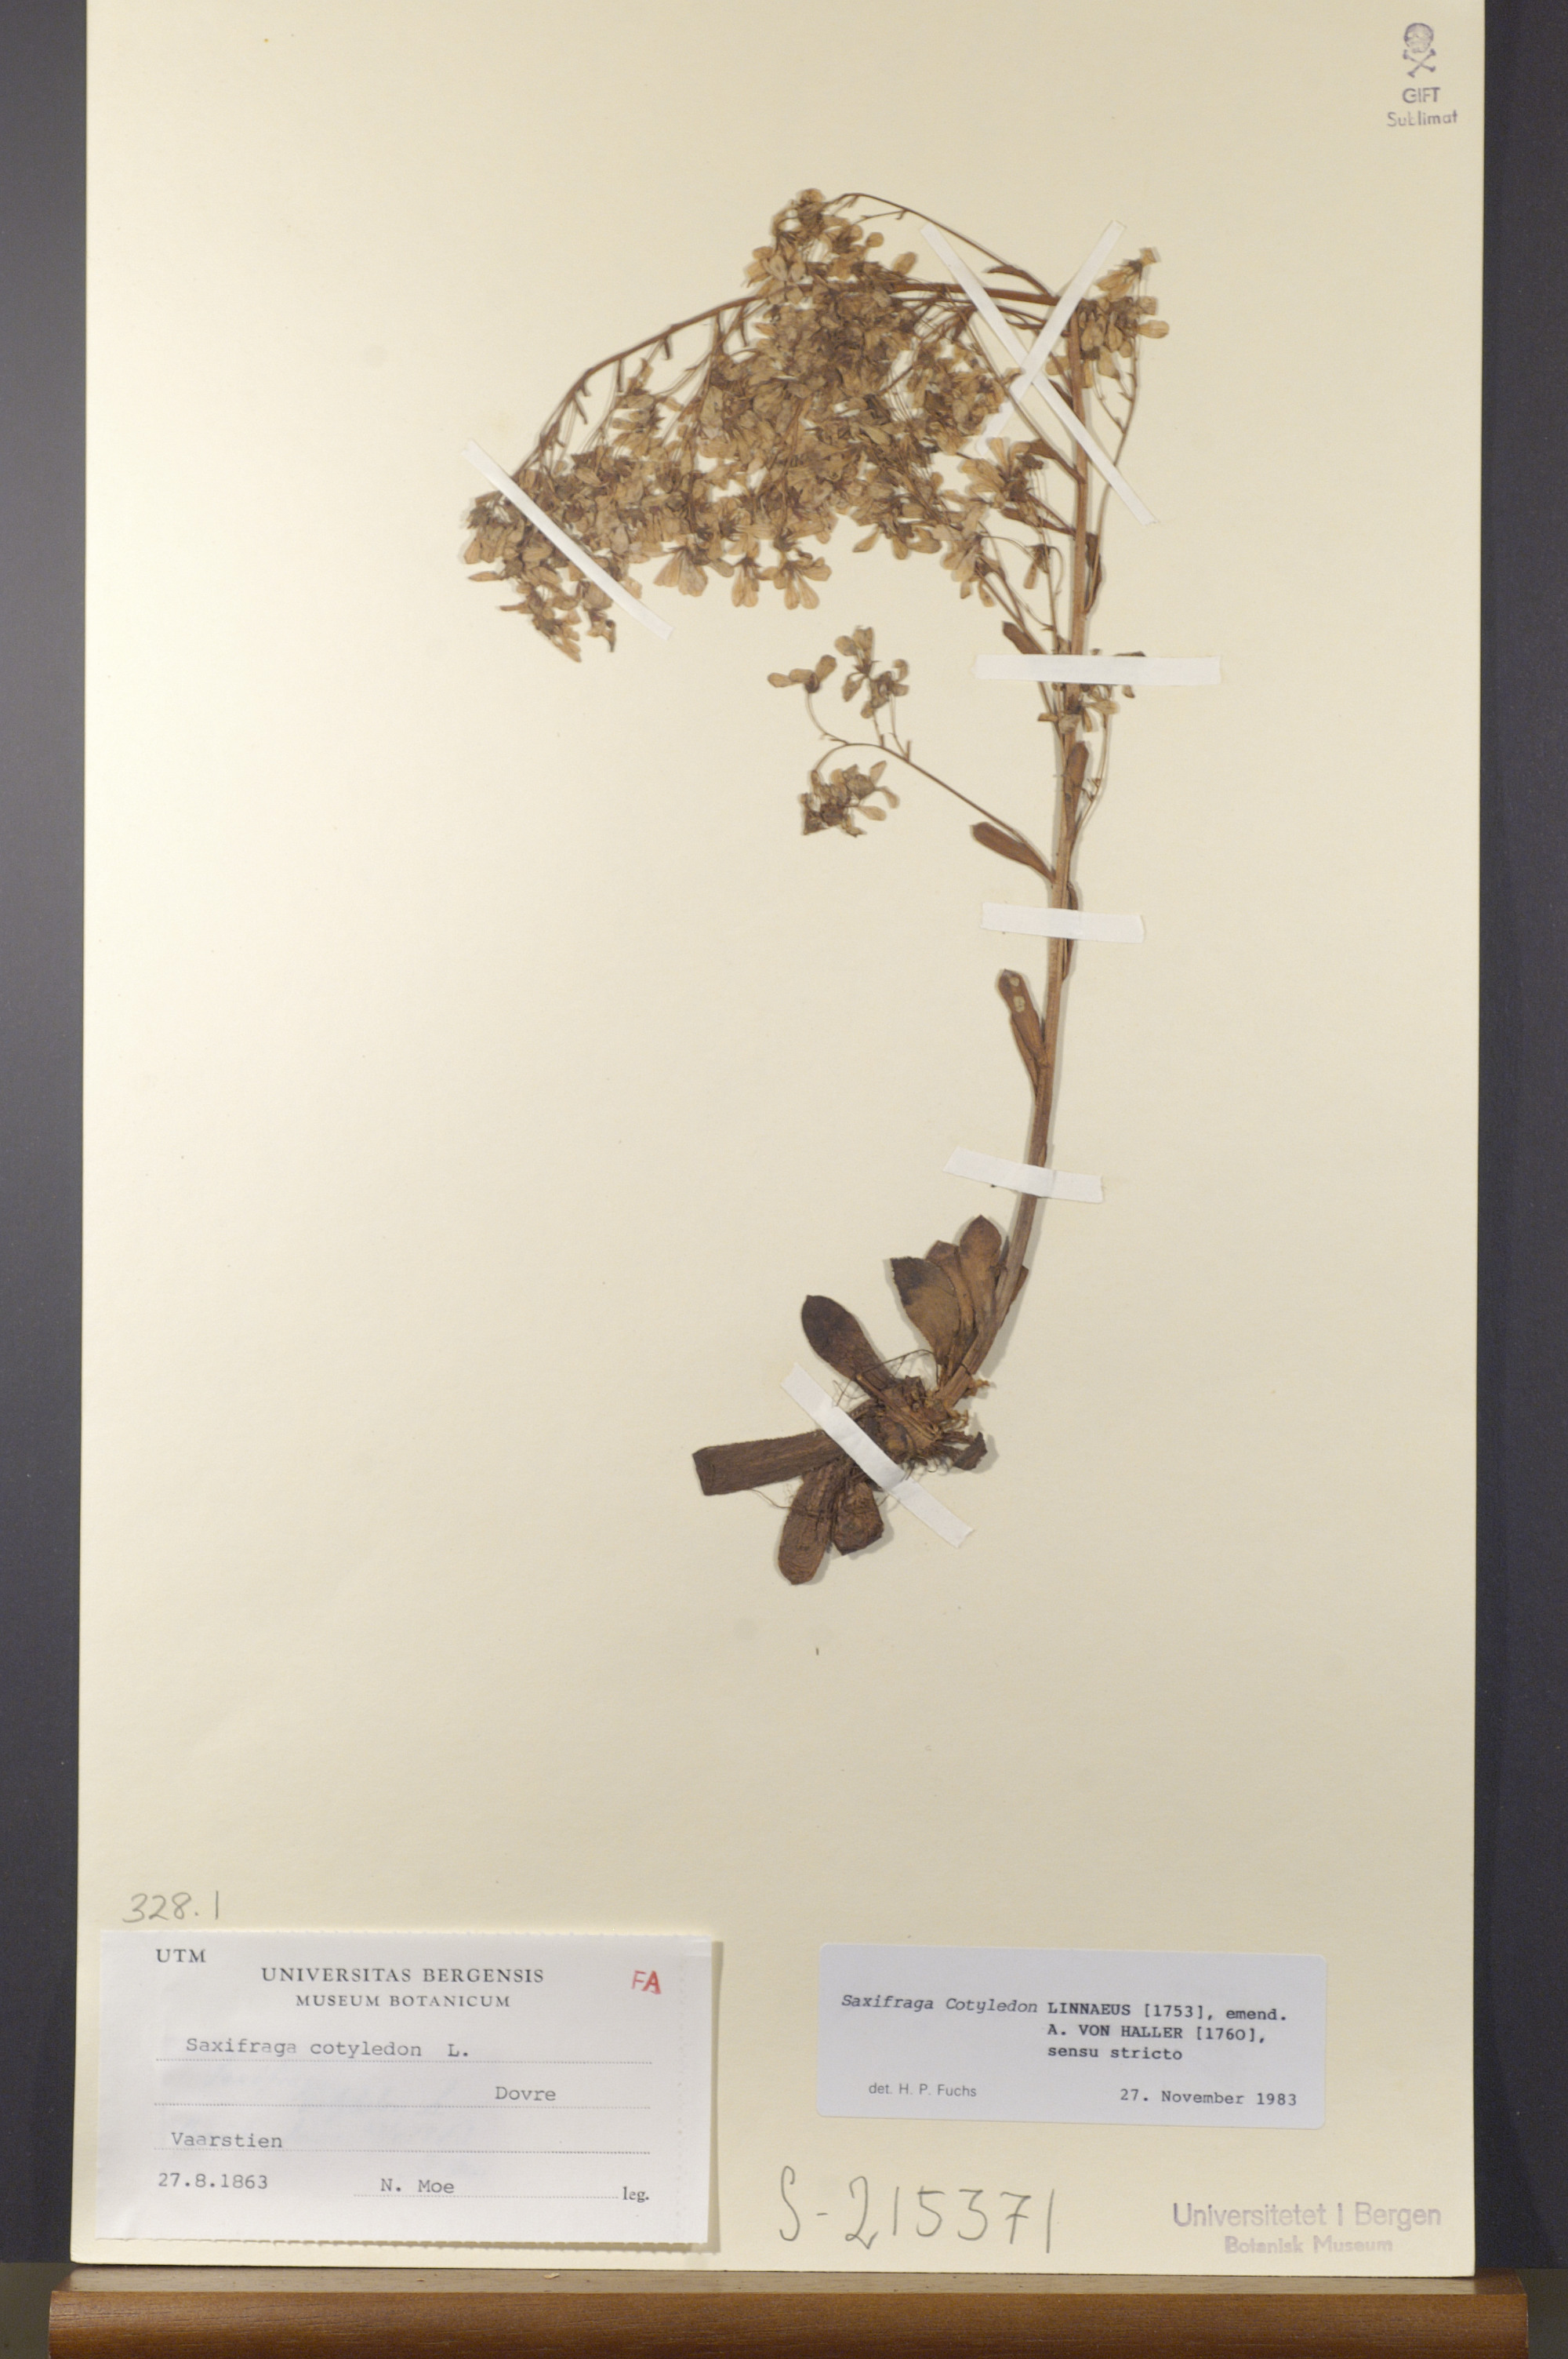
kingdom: Plantae
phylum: Tracheophyta
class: Magnoliopsida
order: Saxifragales
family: Saxifragaceae
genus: Saxifraga
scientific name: Saxifraga cotyledon
